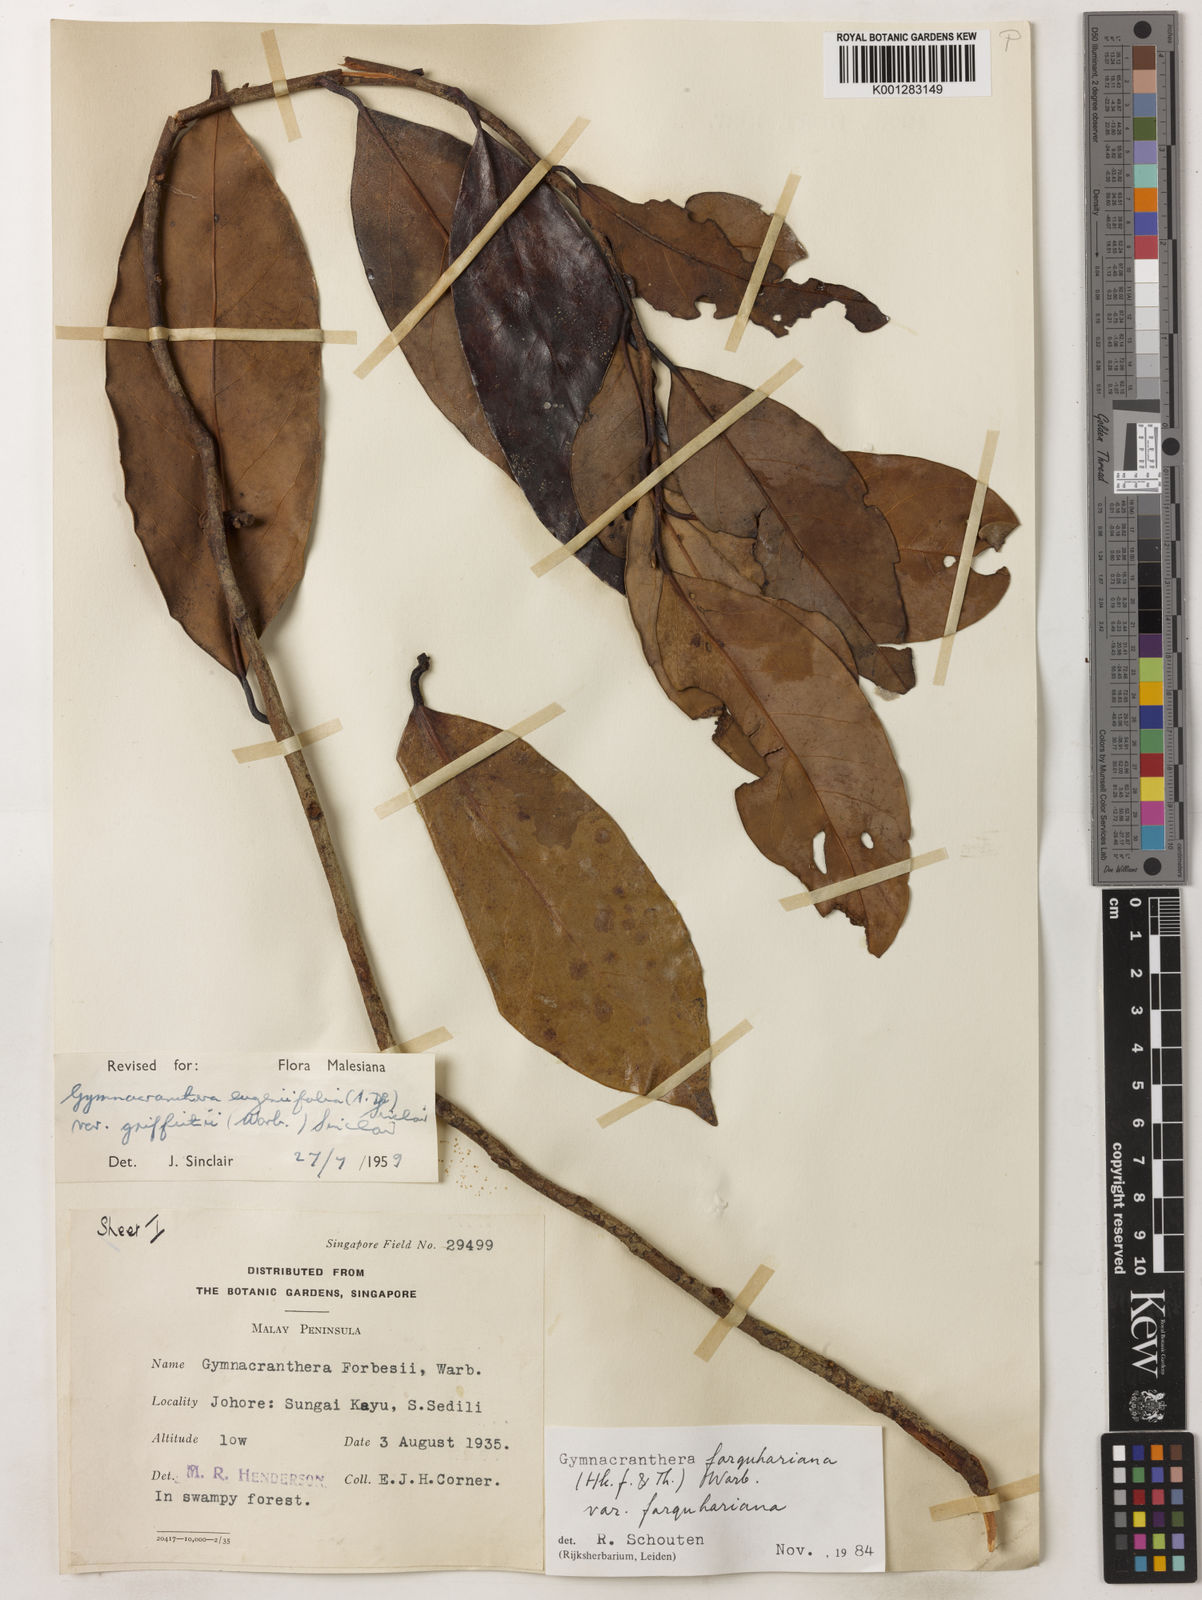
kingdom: Plantae
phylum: Tracheophyta
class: Magnoliopsida
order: Magnoliales
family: Myristicaceae
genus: Gymnacranthera
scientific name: Gymnacranthera farquhariana
